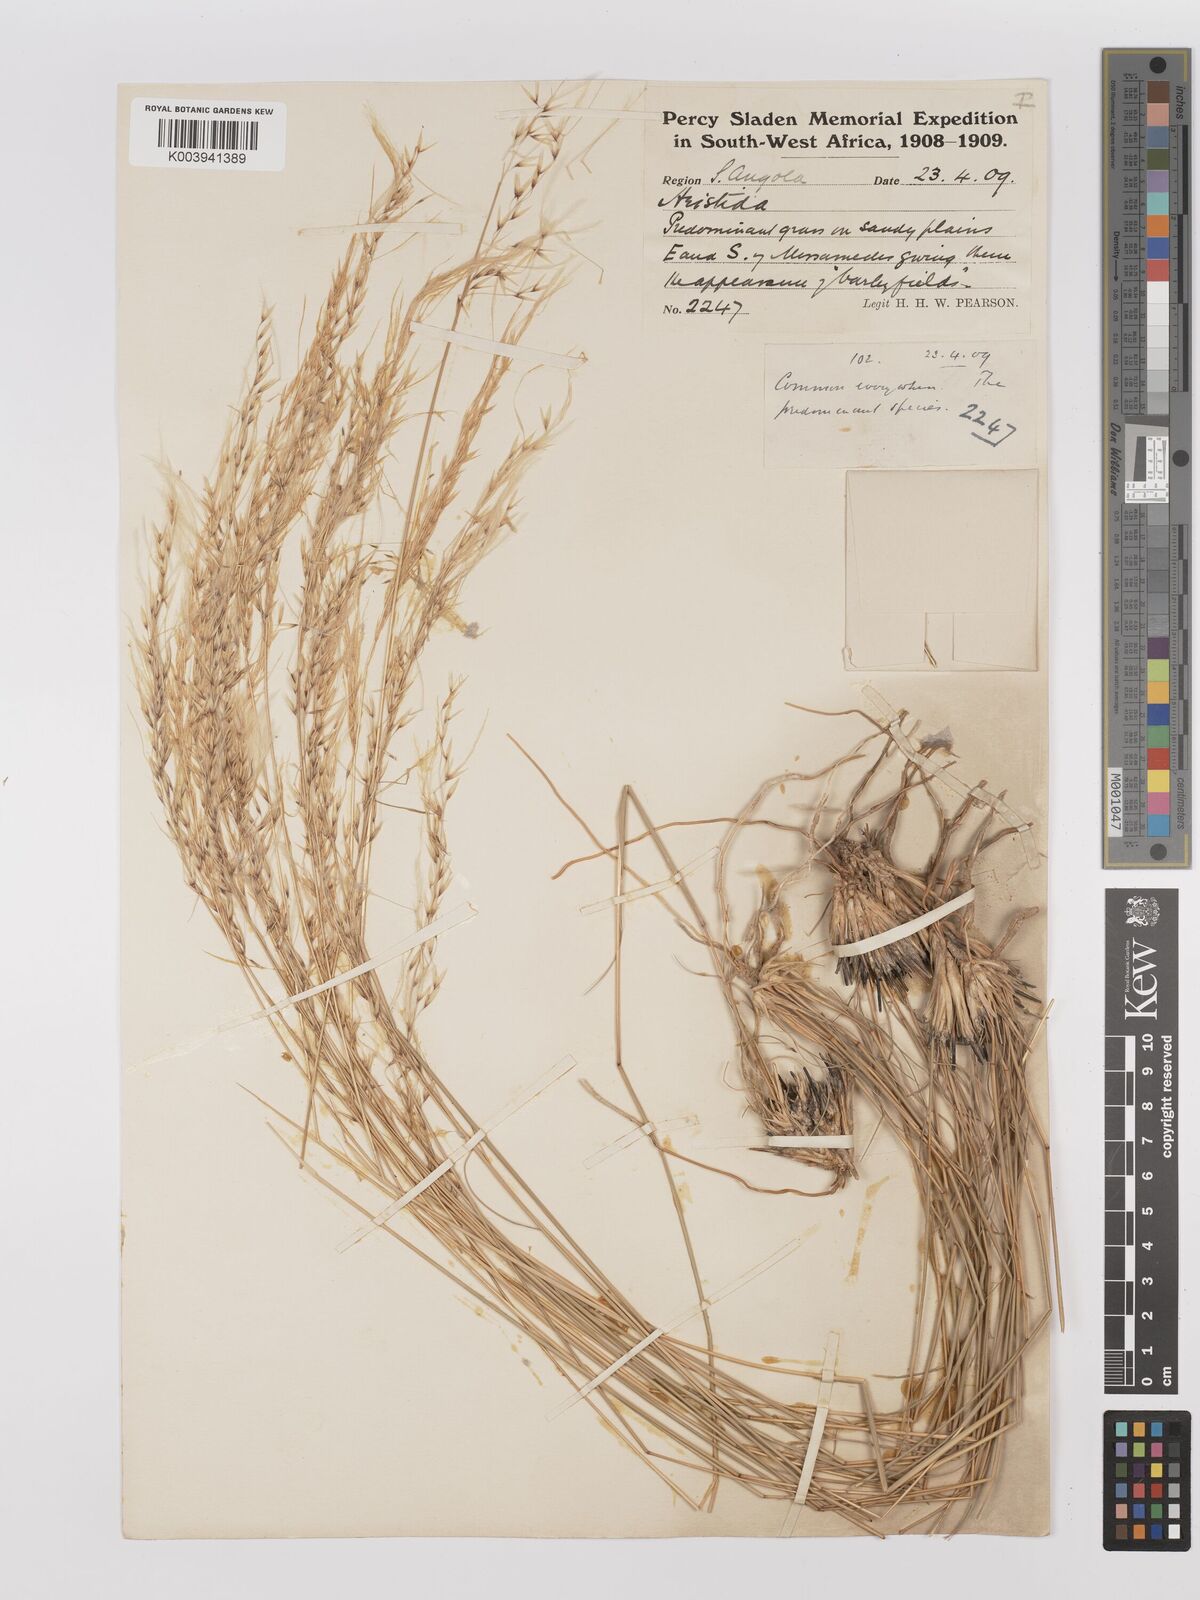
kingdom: Plantae
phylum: Tracheophyta
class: Liliopsida
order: Poales
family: Poaceae
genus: Stipagrostis
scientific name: Stipagrostis prodigiosa
